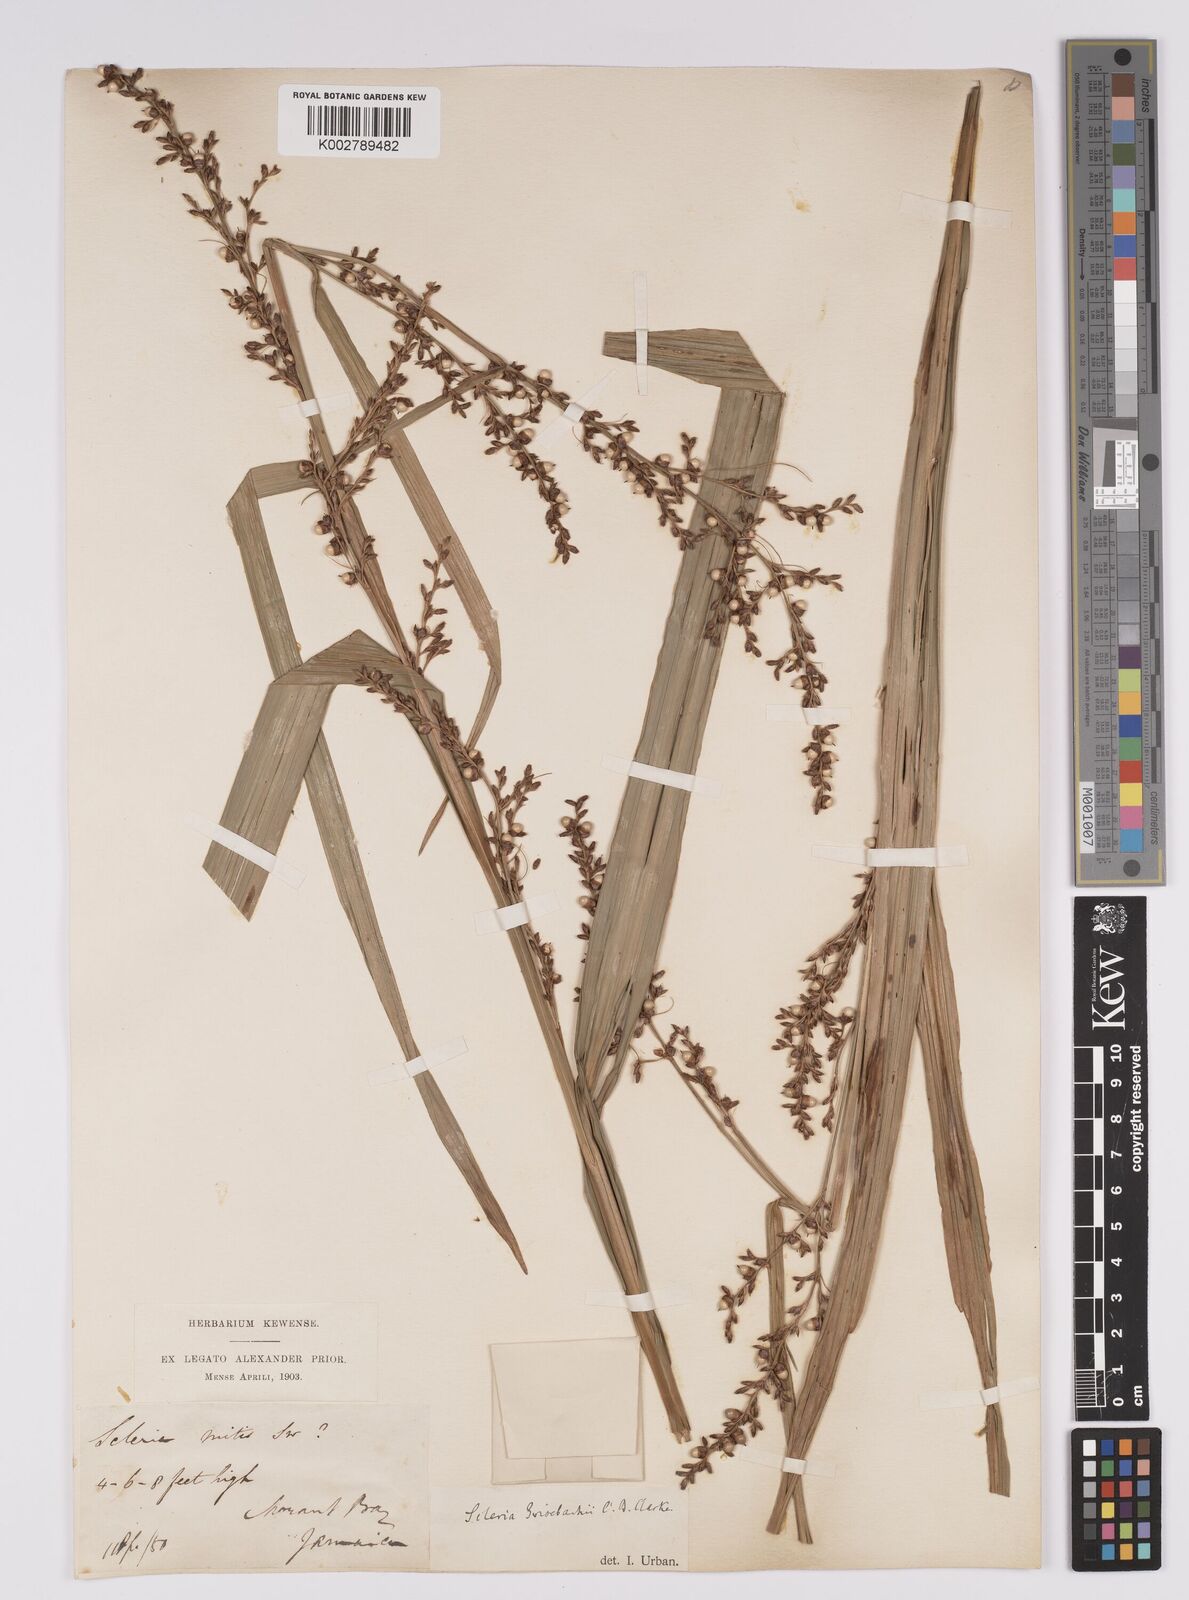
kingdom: Plantae
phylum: Tracheophyta
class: Liliopsida
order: Poales
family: Cyperaceae
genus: Scleria
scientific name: Scleria eggersiana
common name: Eggers' nutrush
